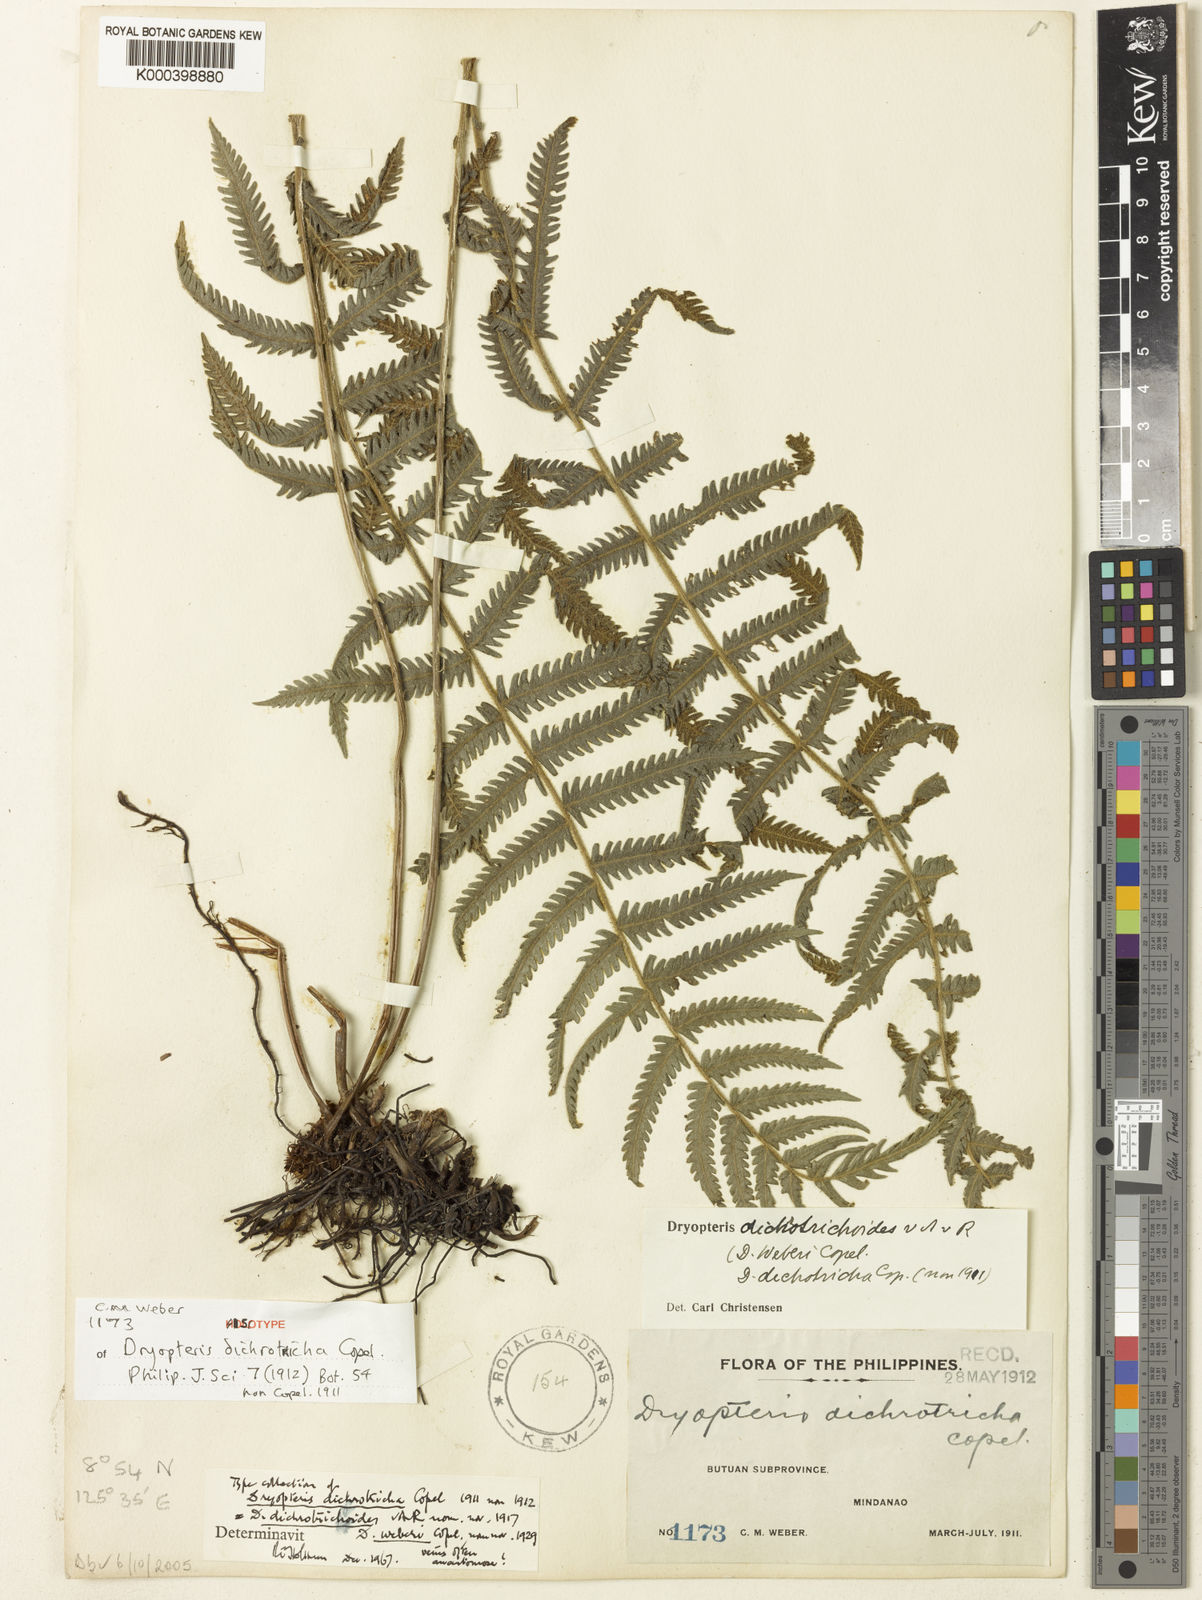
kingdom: Plantae
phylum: Tracheophyta
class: Polypodiopsida
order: Polypodiales
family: Thelypteridaceae
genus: Sphaerostephanos
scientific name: Sphaerostephanos dichrotrichoides
